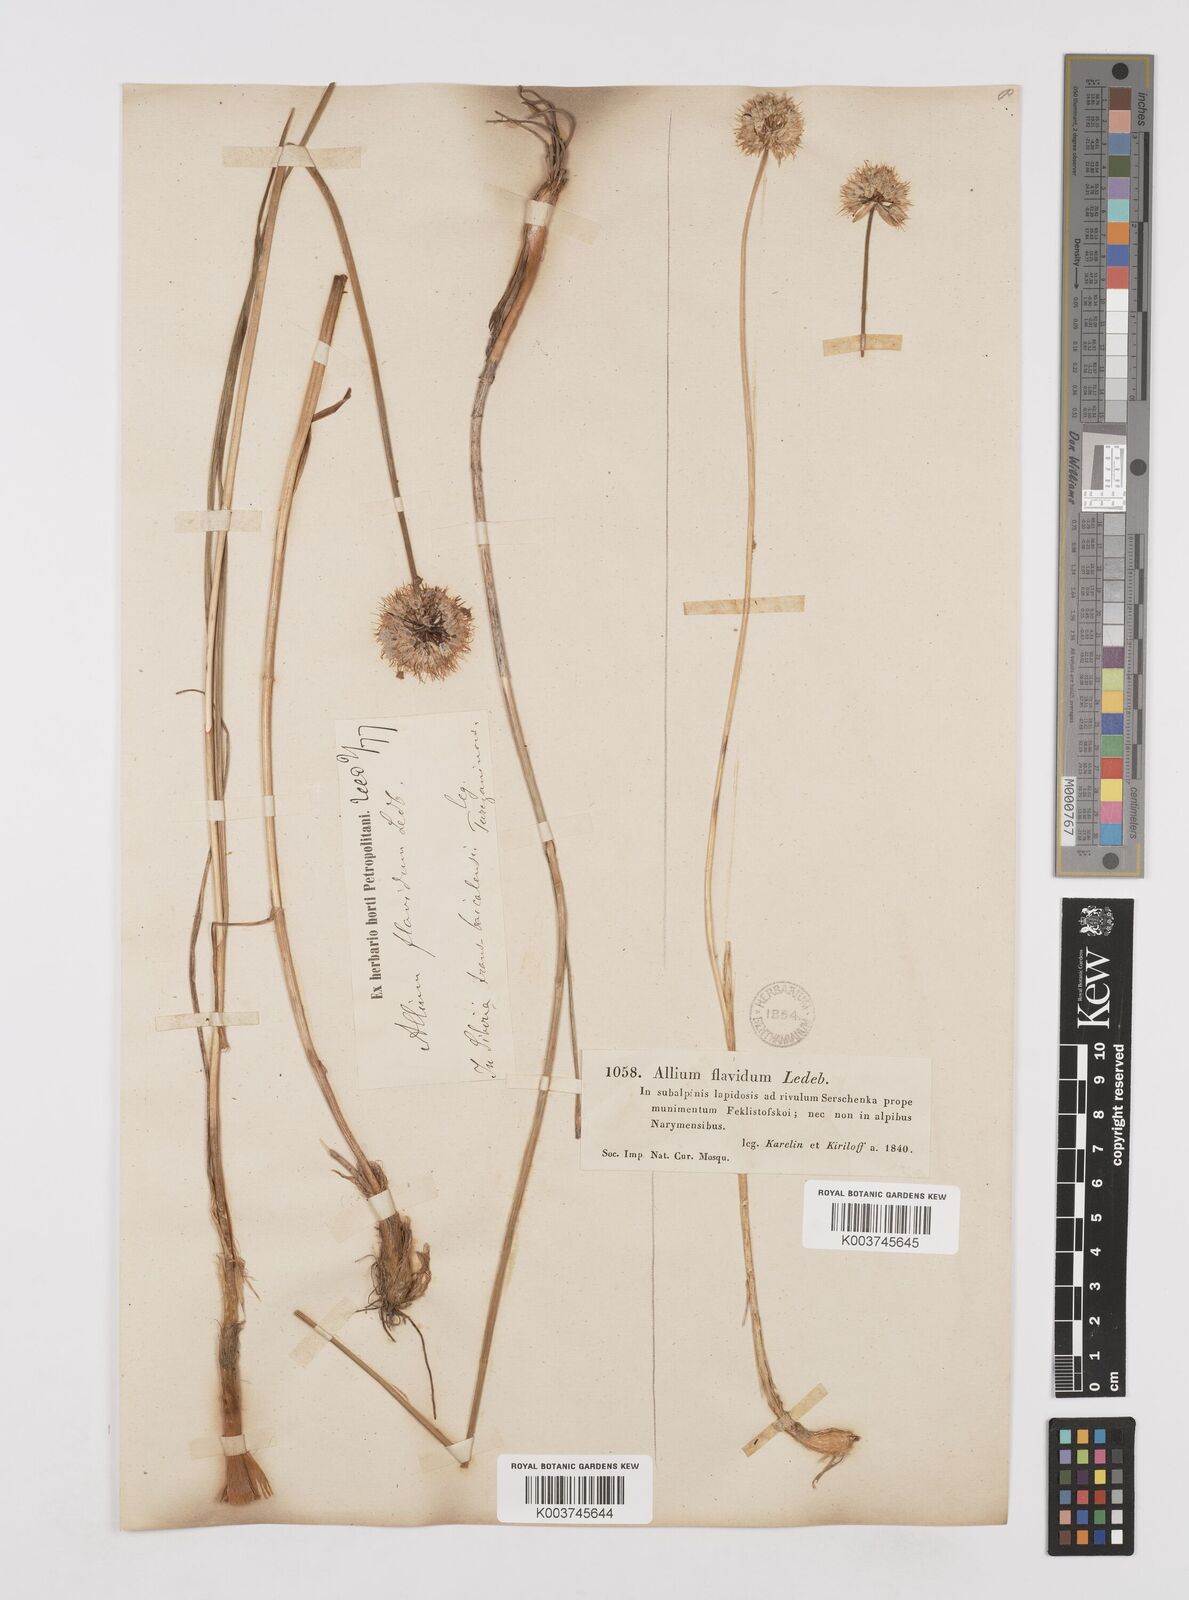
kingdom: Plantae
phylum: Tracheophyta
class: Liliopsida
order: Asparagales
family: Amaryllidaceae
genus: Allium
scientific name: Allium textile
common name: Prairie onion
